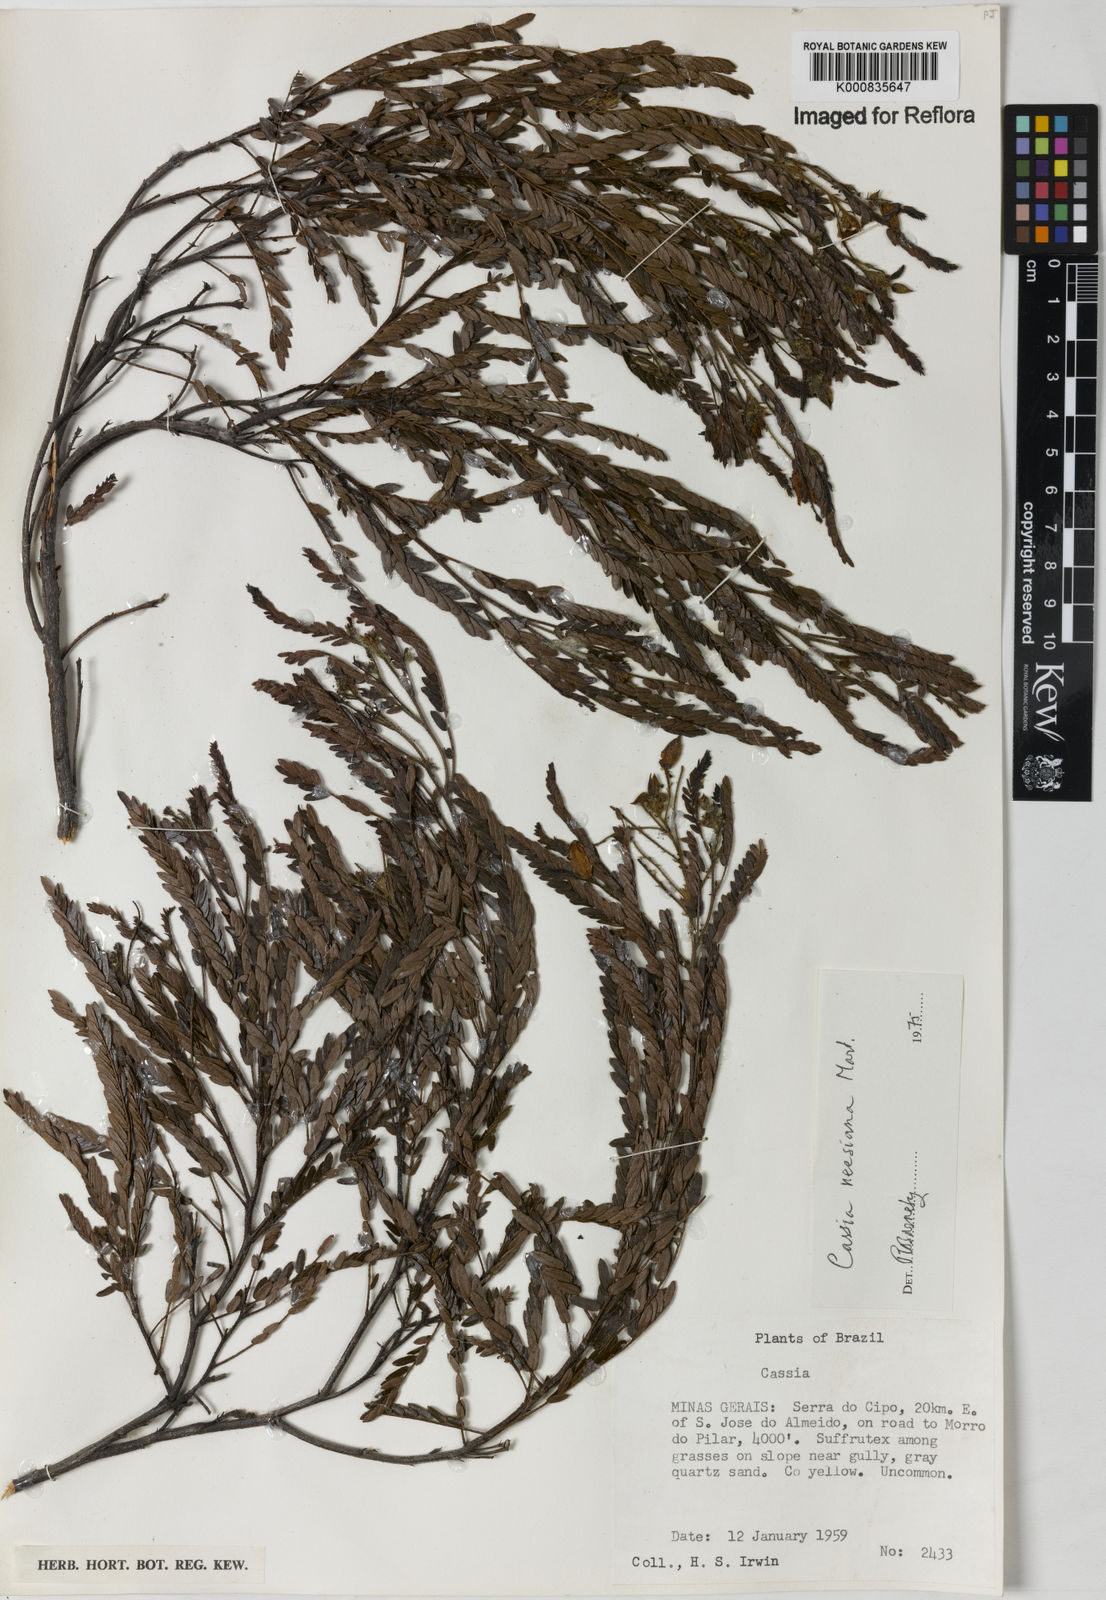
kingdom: Plantae
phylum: Tracheophyta
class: Magnoliopsida
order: Fabales
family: Fabaceae
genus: Chamaecrista
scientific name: Chamaecrista neesiana
